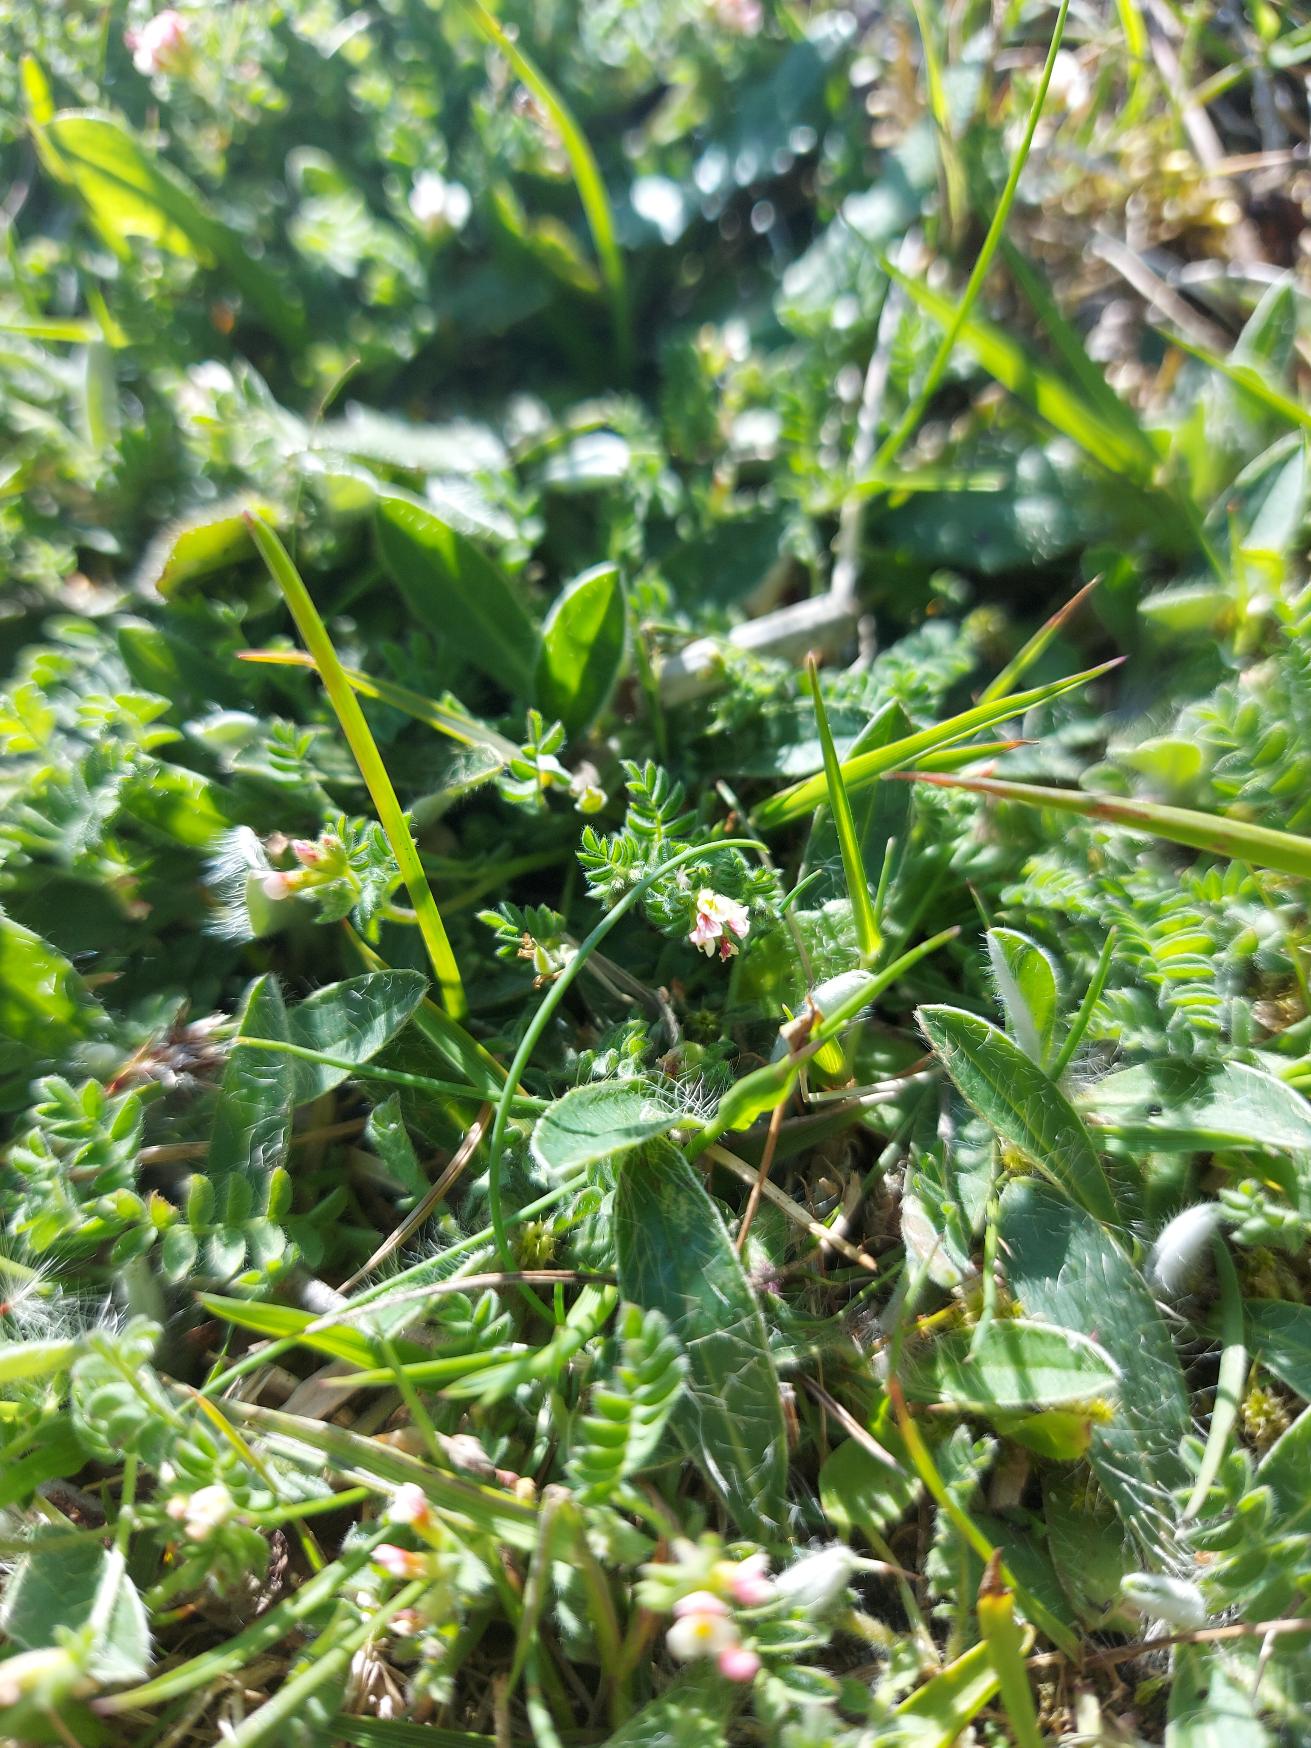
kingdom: Plantae
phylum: Tracheophyta
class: Magnoliopsida
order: Fabales
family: Fabaceae
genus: Ornithopus
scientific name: Ornithopus perpusillus
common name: Liden fugleklo
